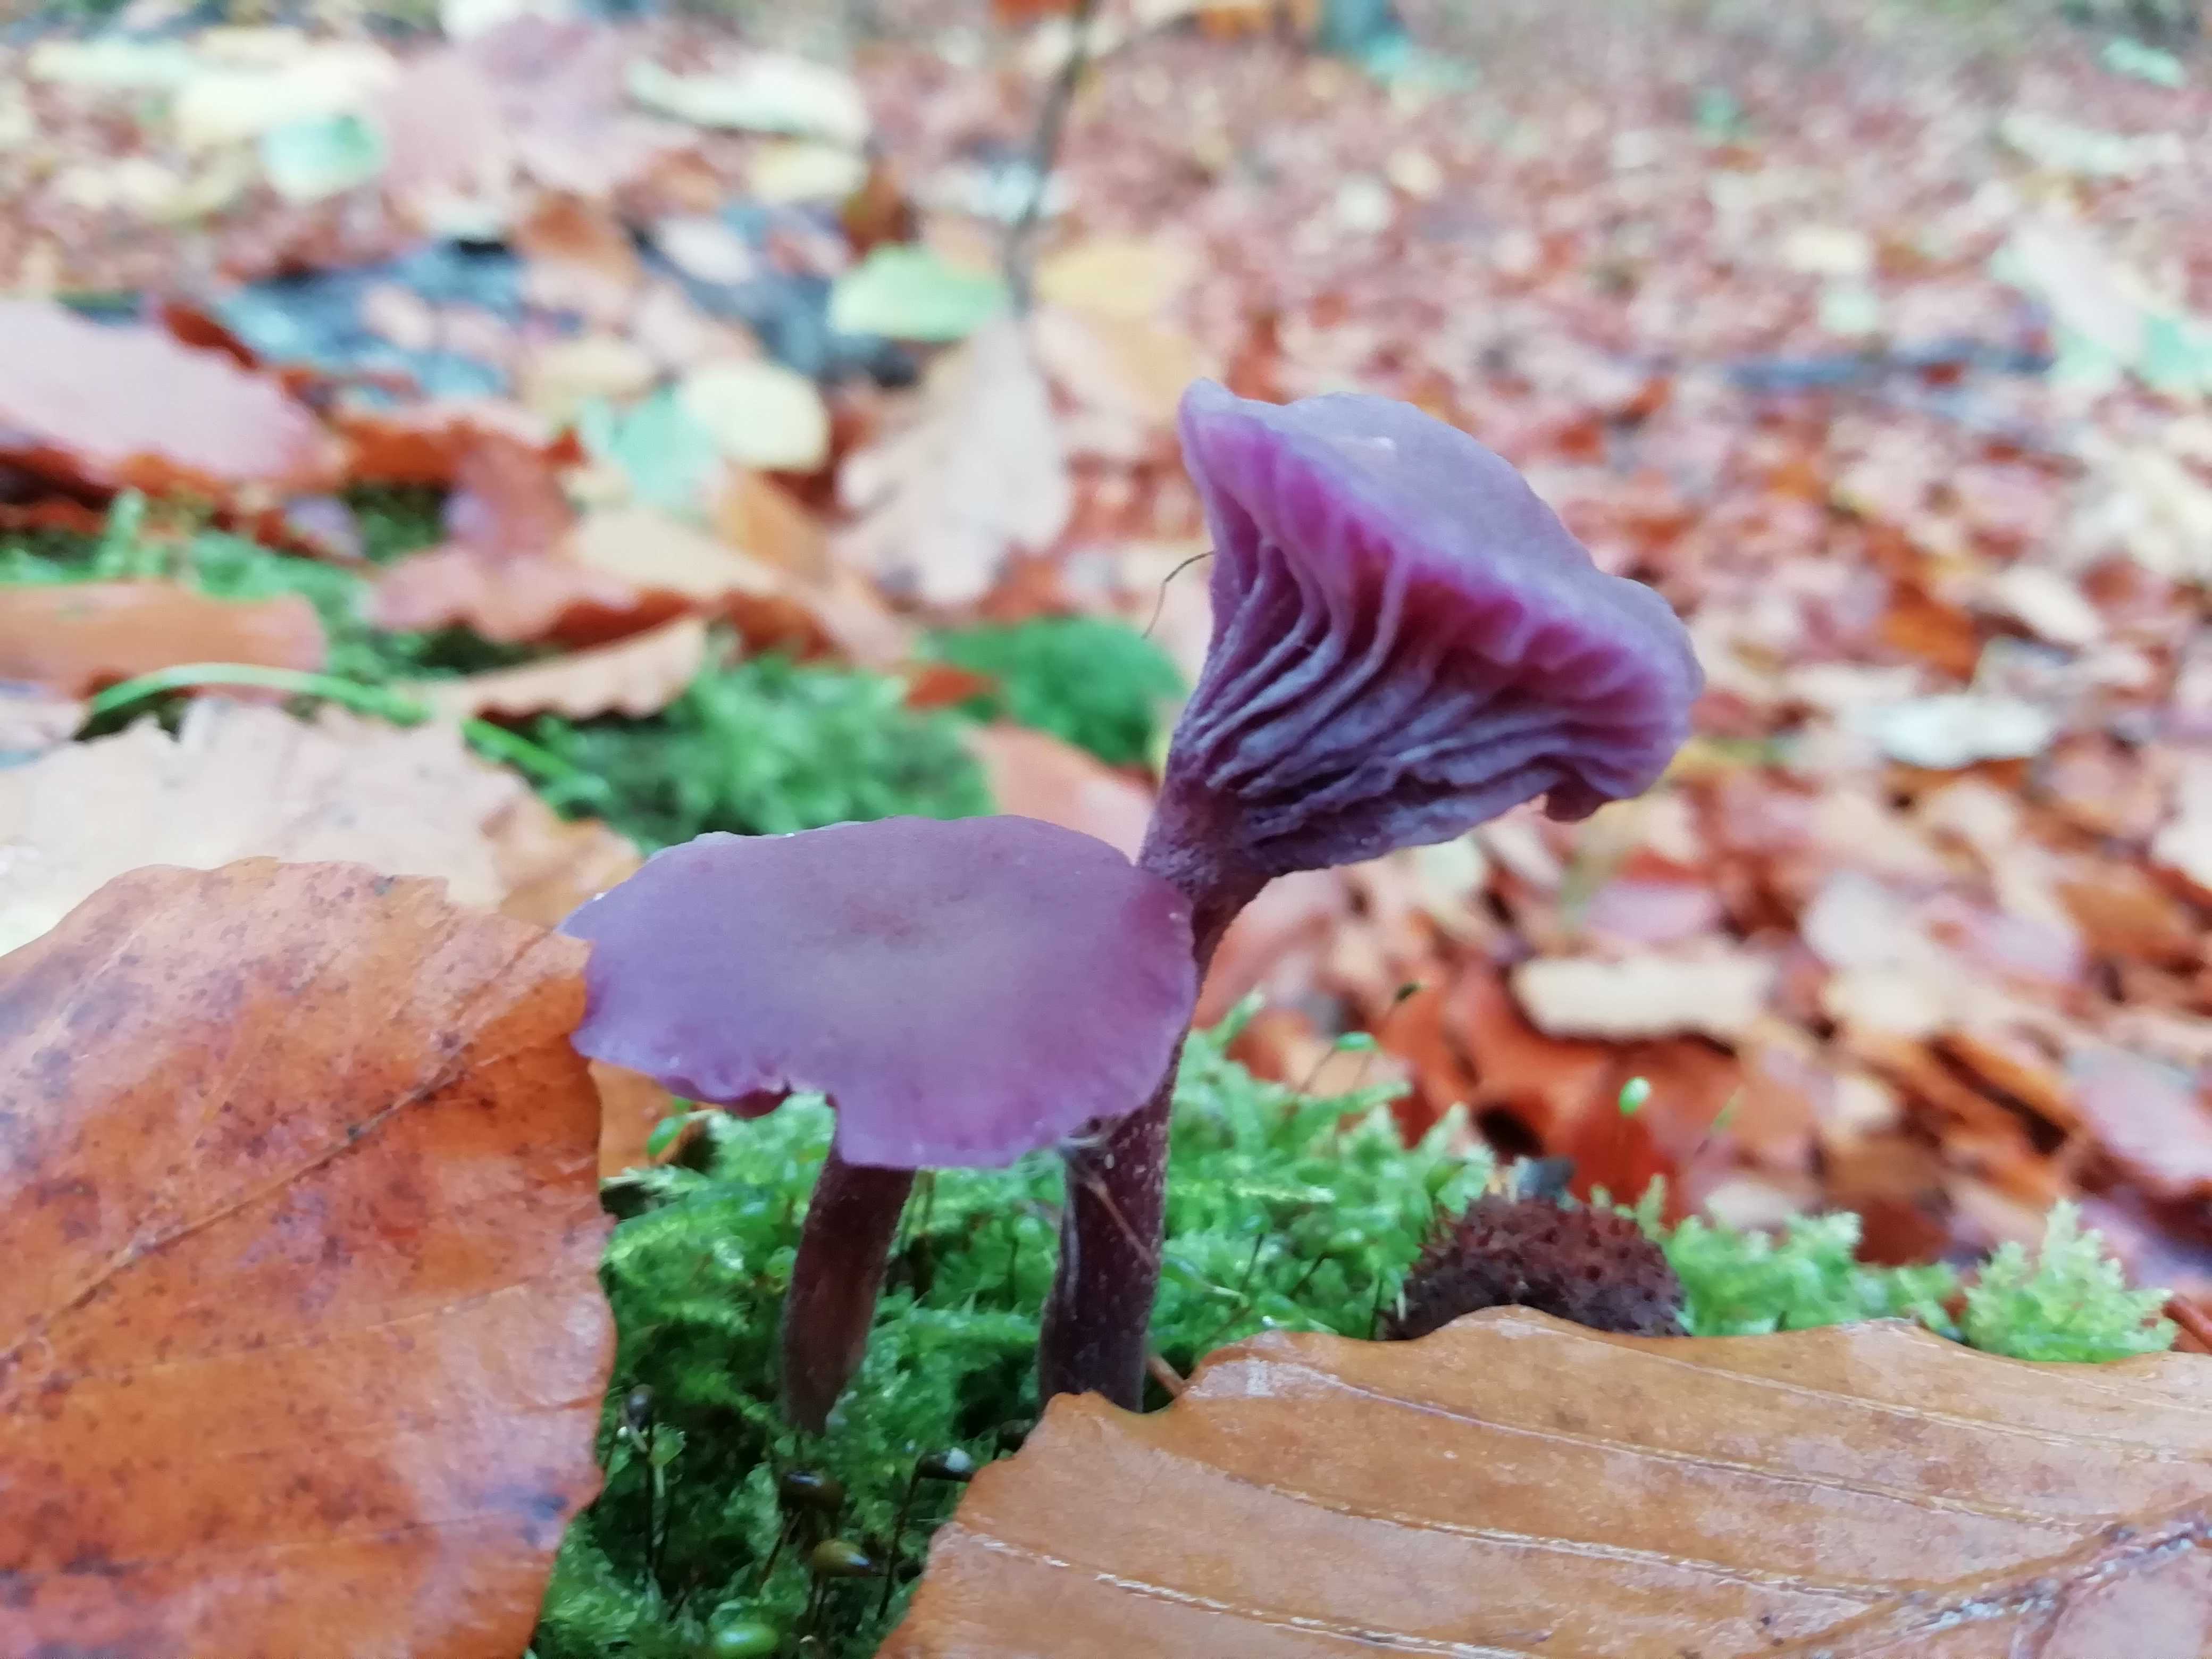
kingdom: Fungi
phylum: Basidiomycota
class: Agaricomycetes
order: Agaricales
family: Hydnangiaceae
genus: Laccaria
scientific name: Laccaria amethystina
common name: violet ametysthat
